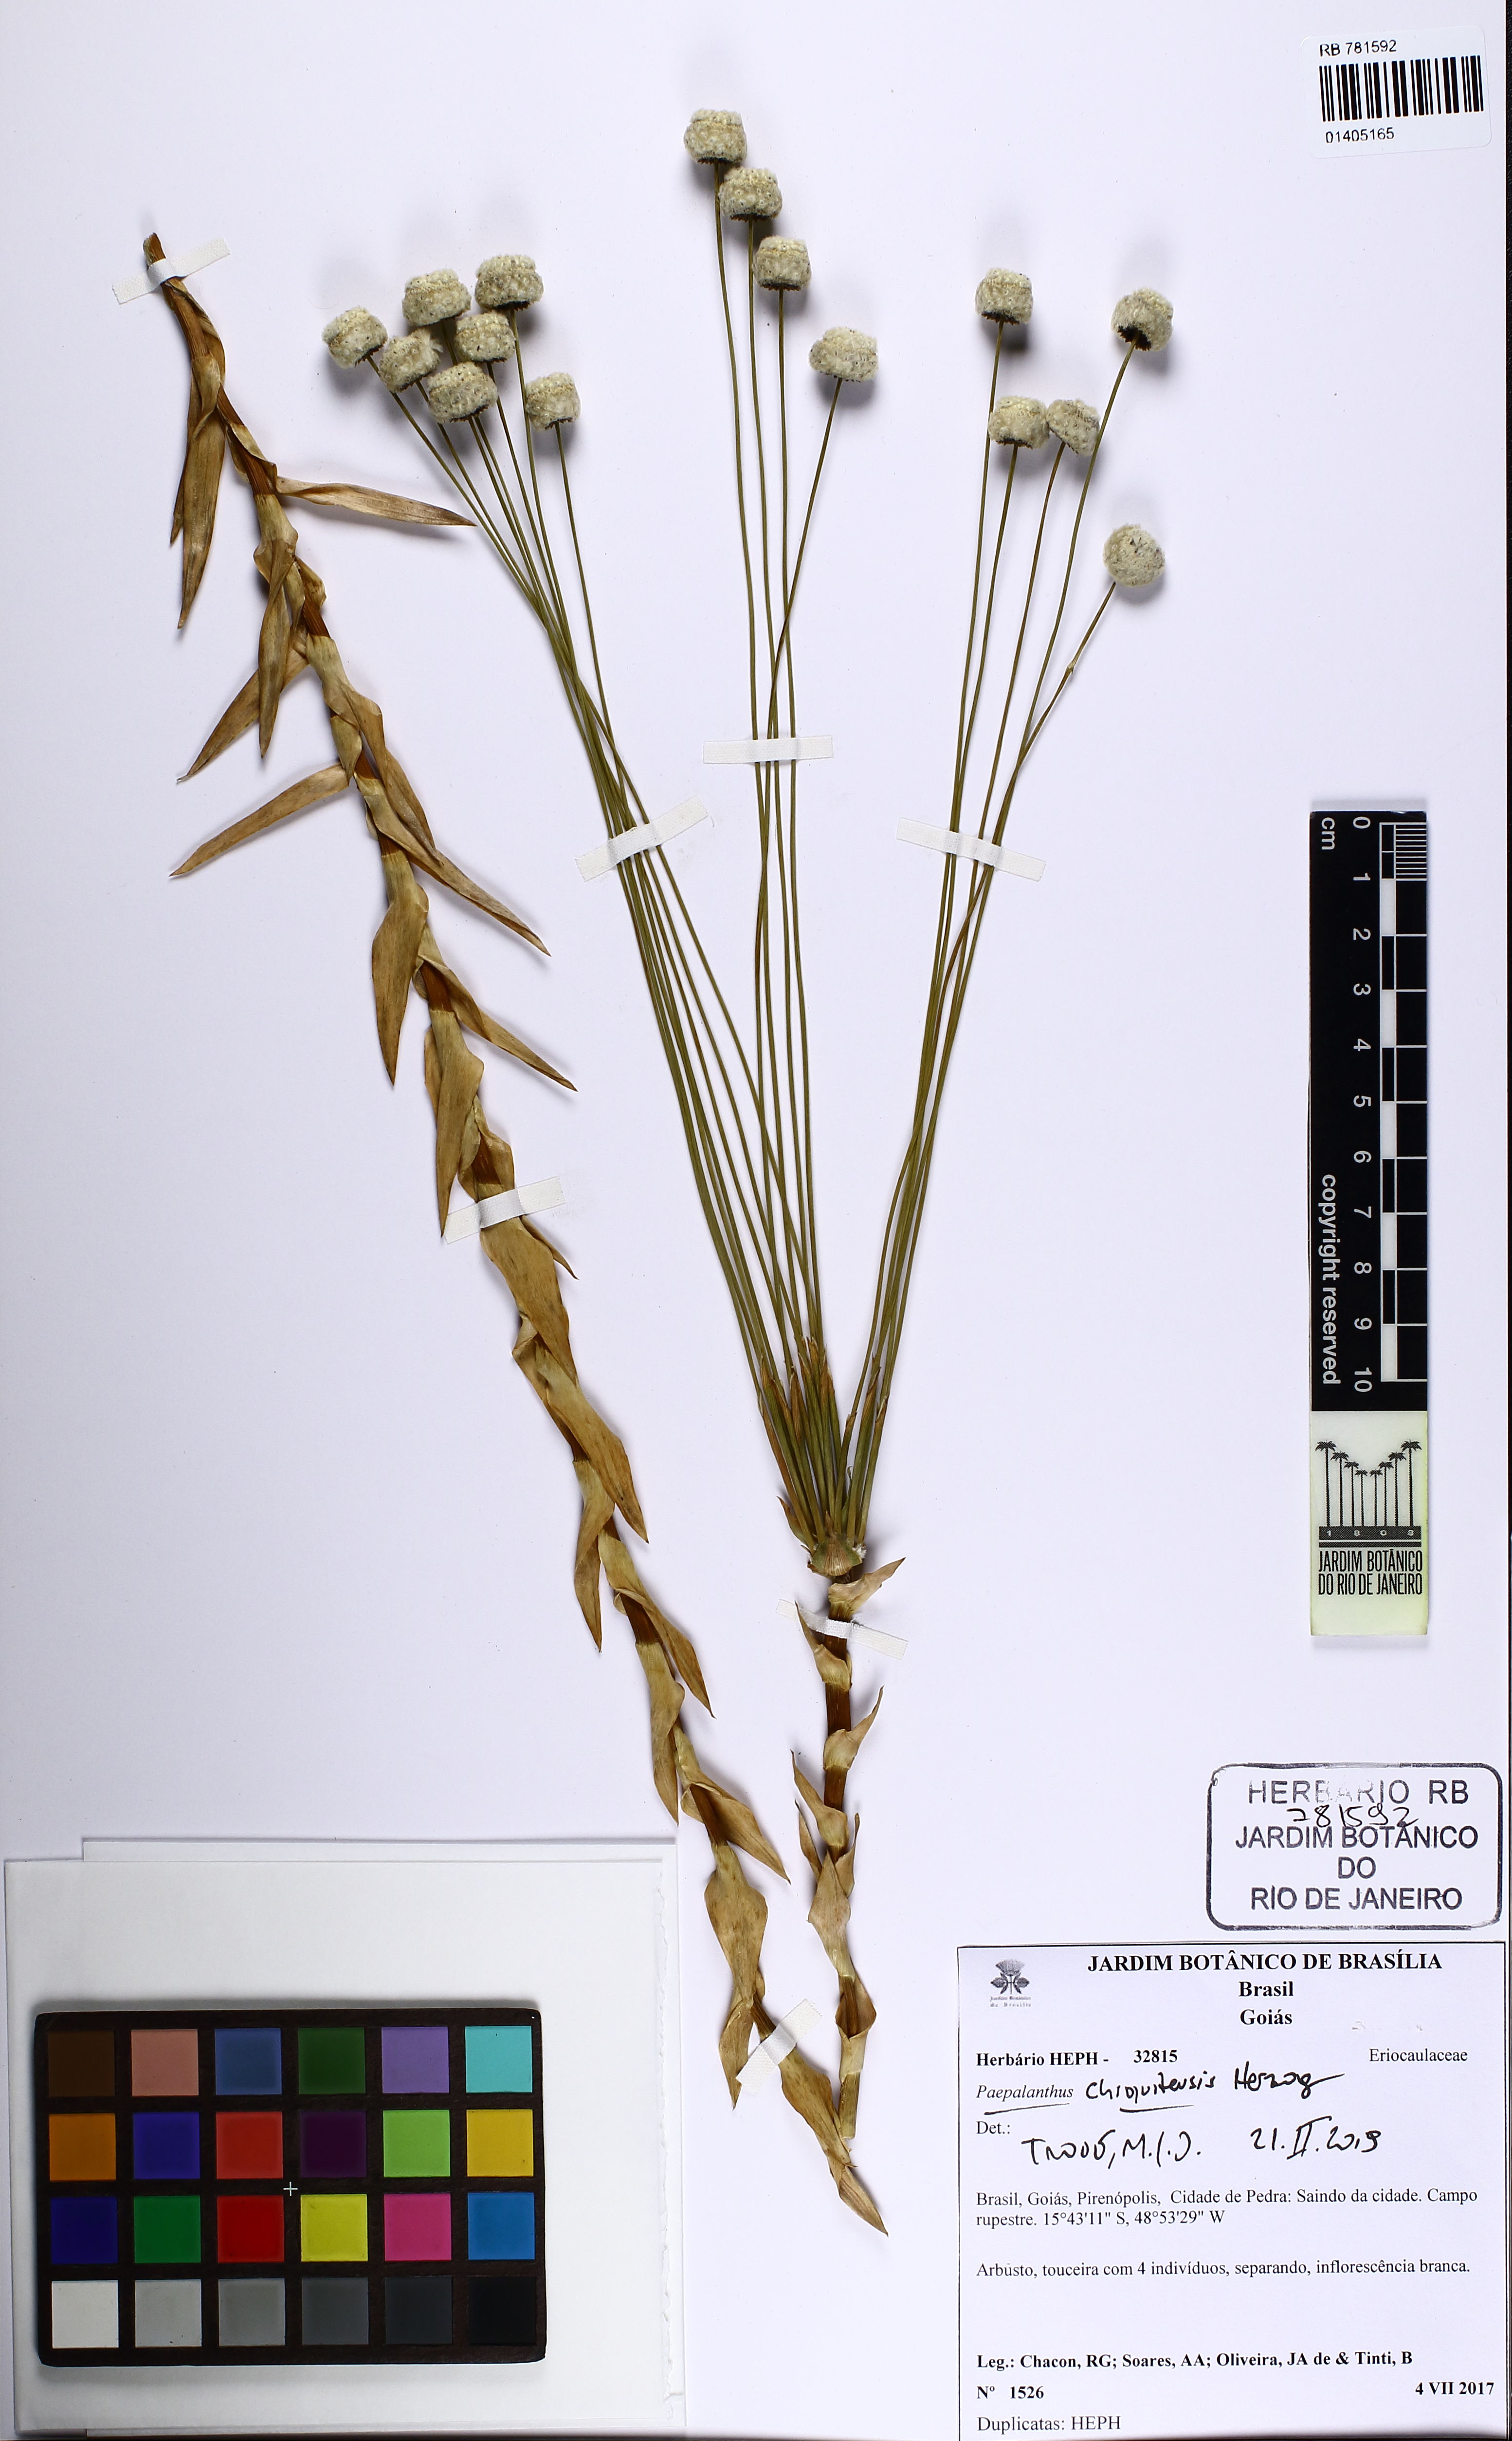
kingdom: Plantae
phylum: Tracheophyta
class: Liliopsida
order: Poales
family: Eriocaulaceae
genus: Paepalanthus
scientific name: Paepalanthus chiquitensis
